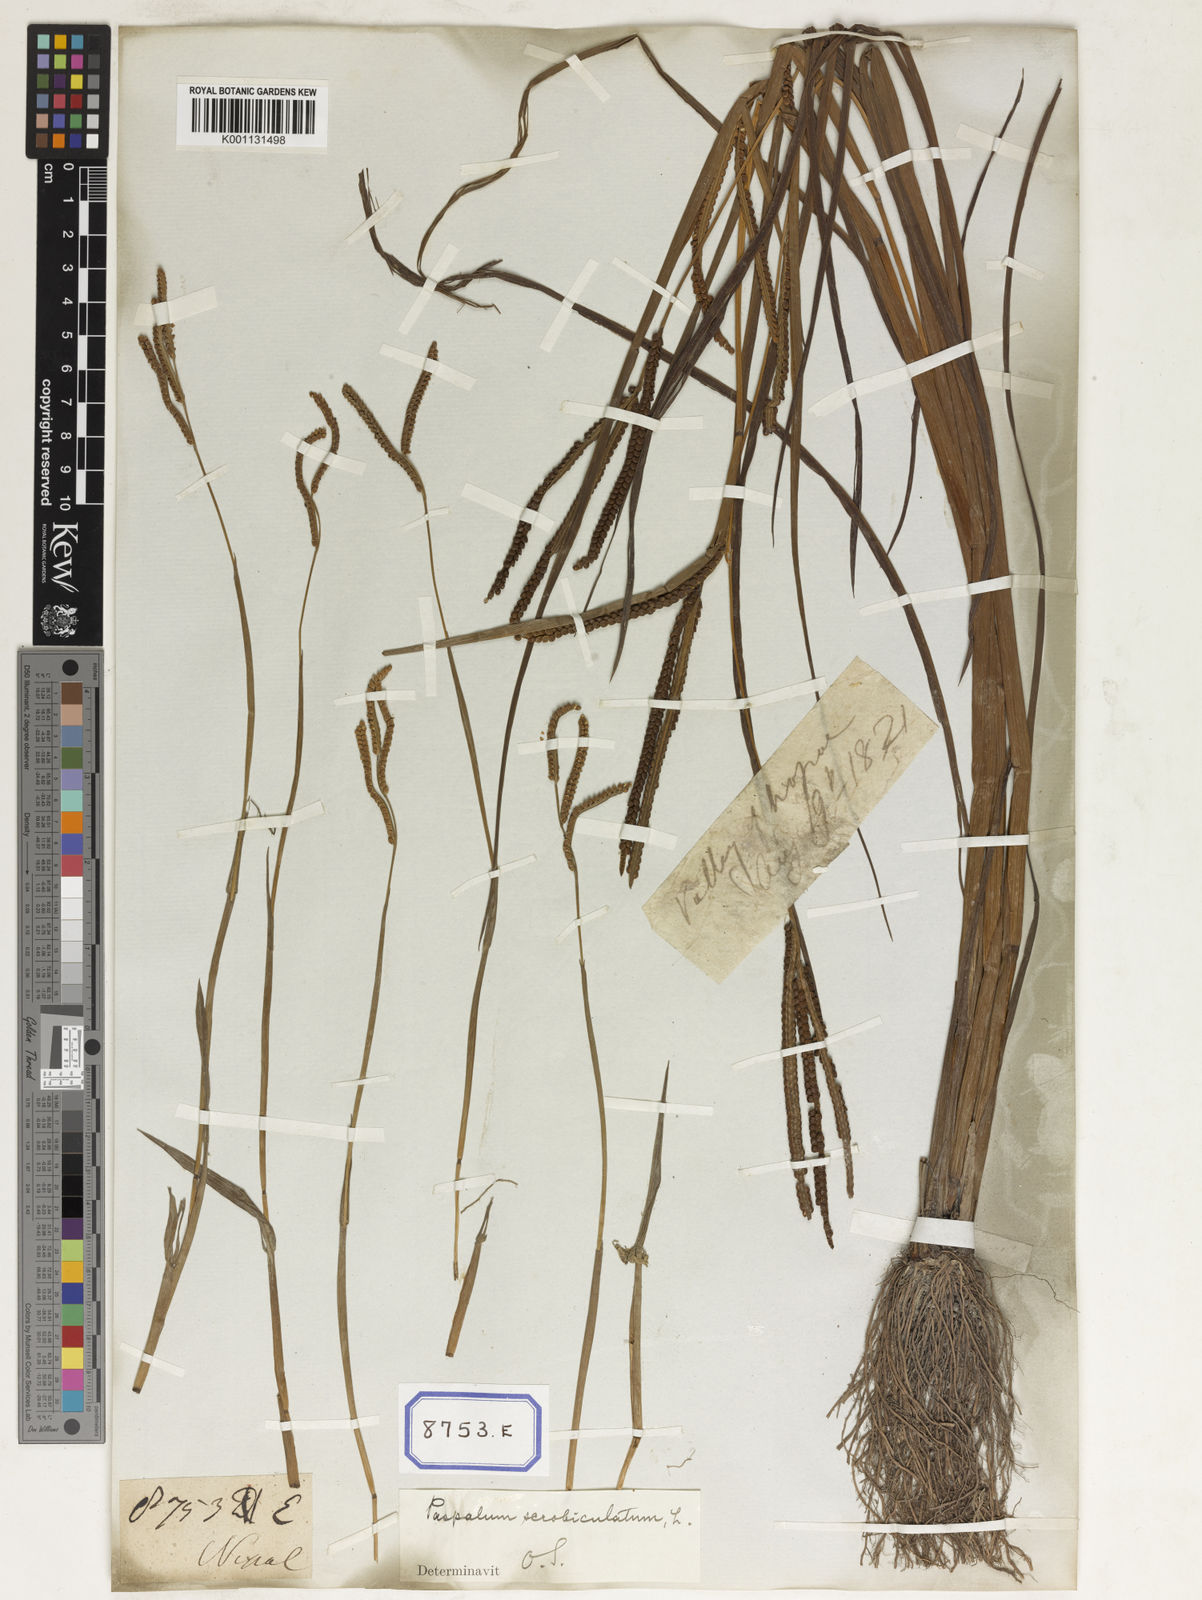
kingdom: Plantae
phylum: Tracheophyta
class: Liliopsida
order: Poales
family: Poaceae
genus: Paspalum
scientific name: Paspalum scrobiculatum
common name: Kodo millet
